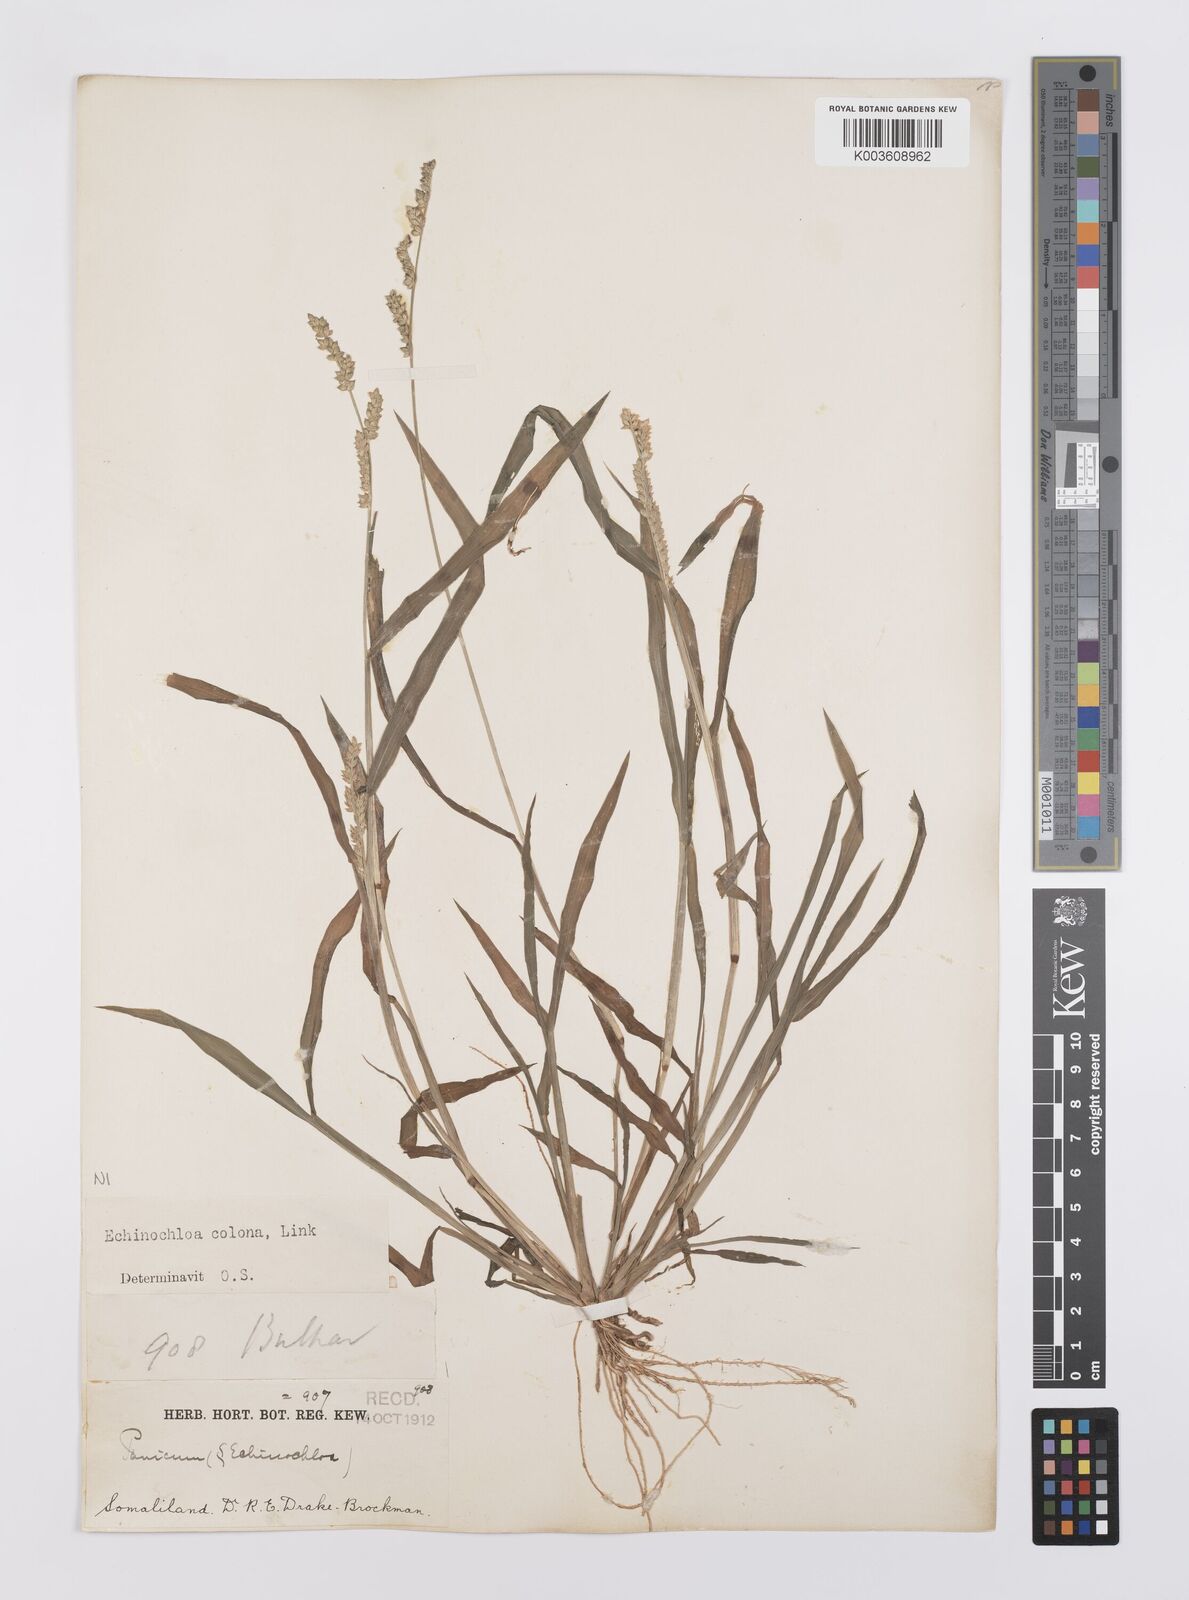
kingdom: Plantae
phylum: Tracheophyta
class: Liliopsida
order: Poales
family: Poaceae
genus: Echinochloa
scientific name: Echinochloa colonum
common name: Jungle rice
